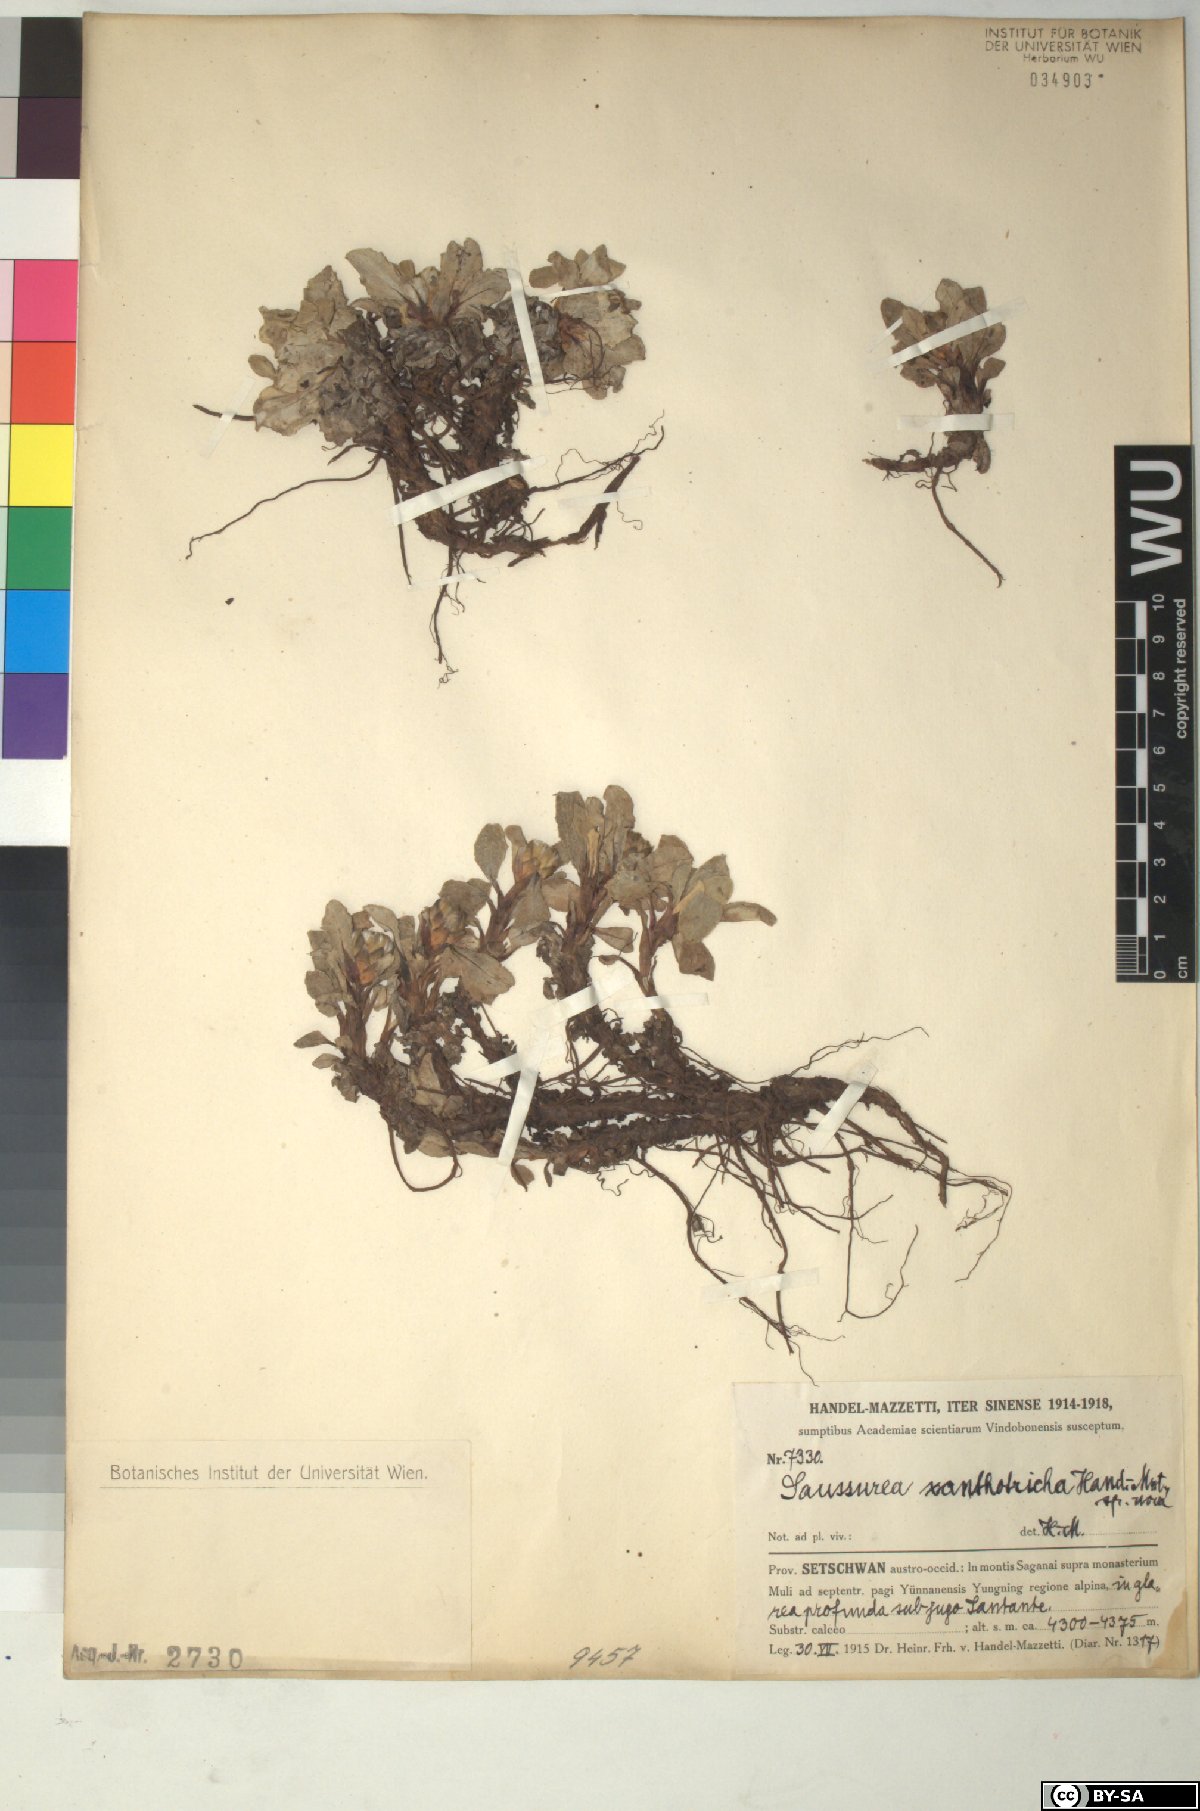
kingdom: Plantae
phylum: Tracheophyta
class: Magnoliopsida
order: Asterales
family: Asteraceae
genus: Saussurea
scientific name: Saussurea melanotricha
